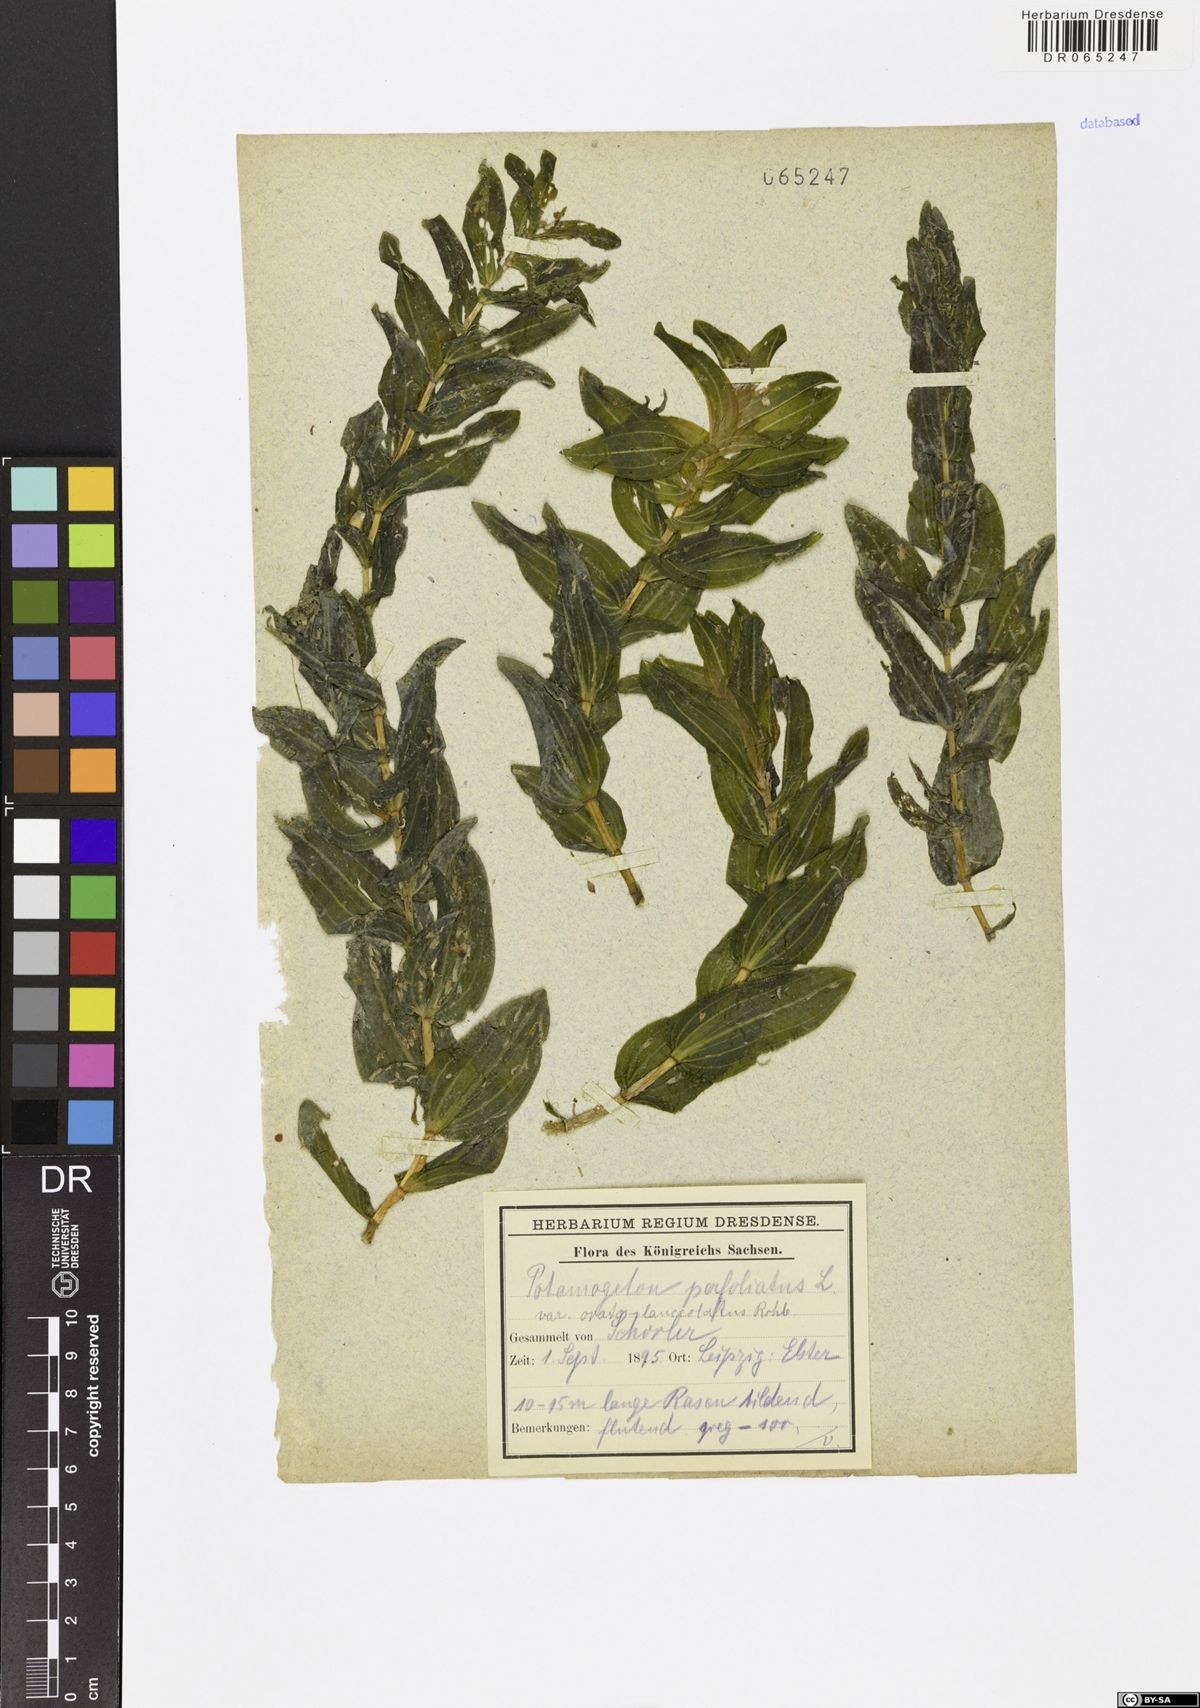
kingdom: Plantae
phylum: Tracheophyta
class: Liliopsida
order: Alismatales
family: Potamogetonaceae
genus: Potamogeton
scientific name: Potamogeton perfoliatus
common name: Perfoliate pondweed
